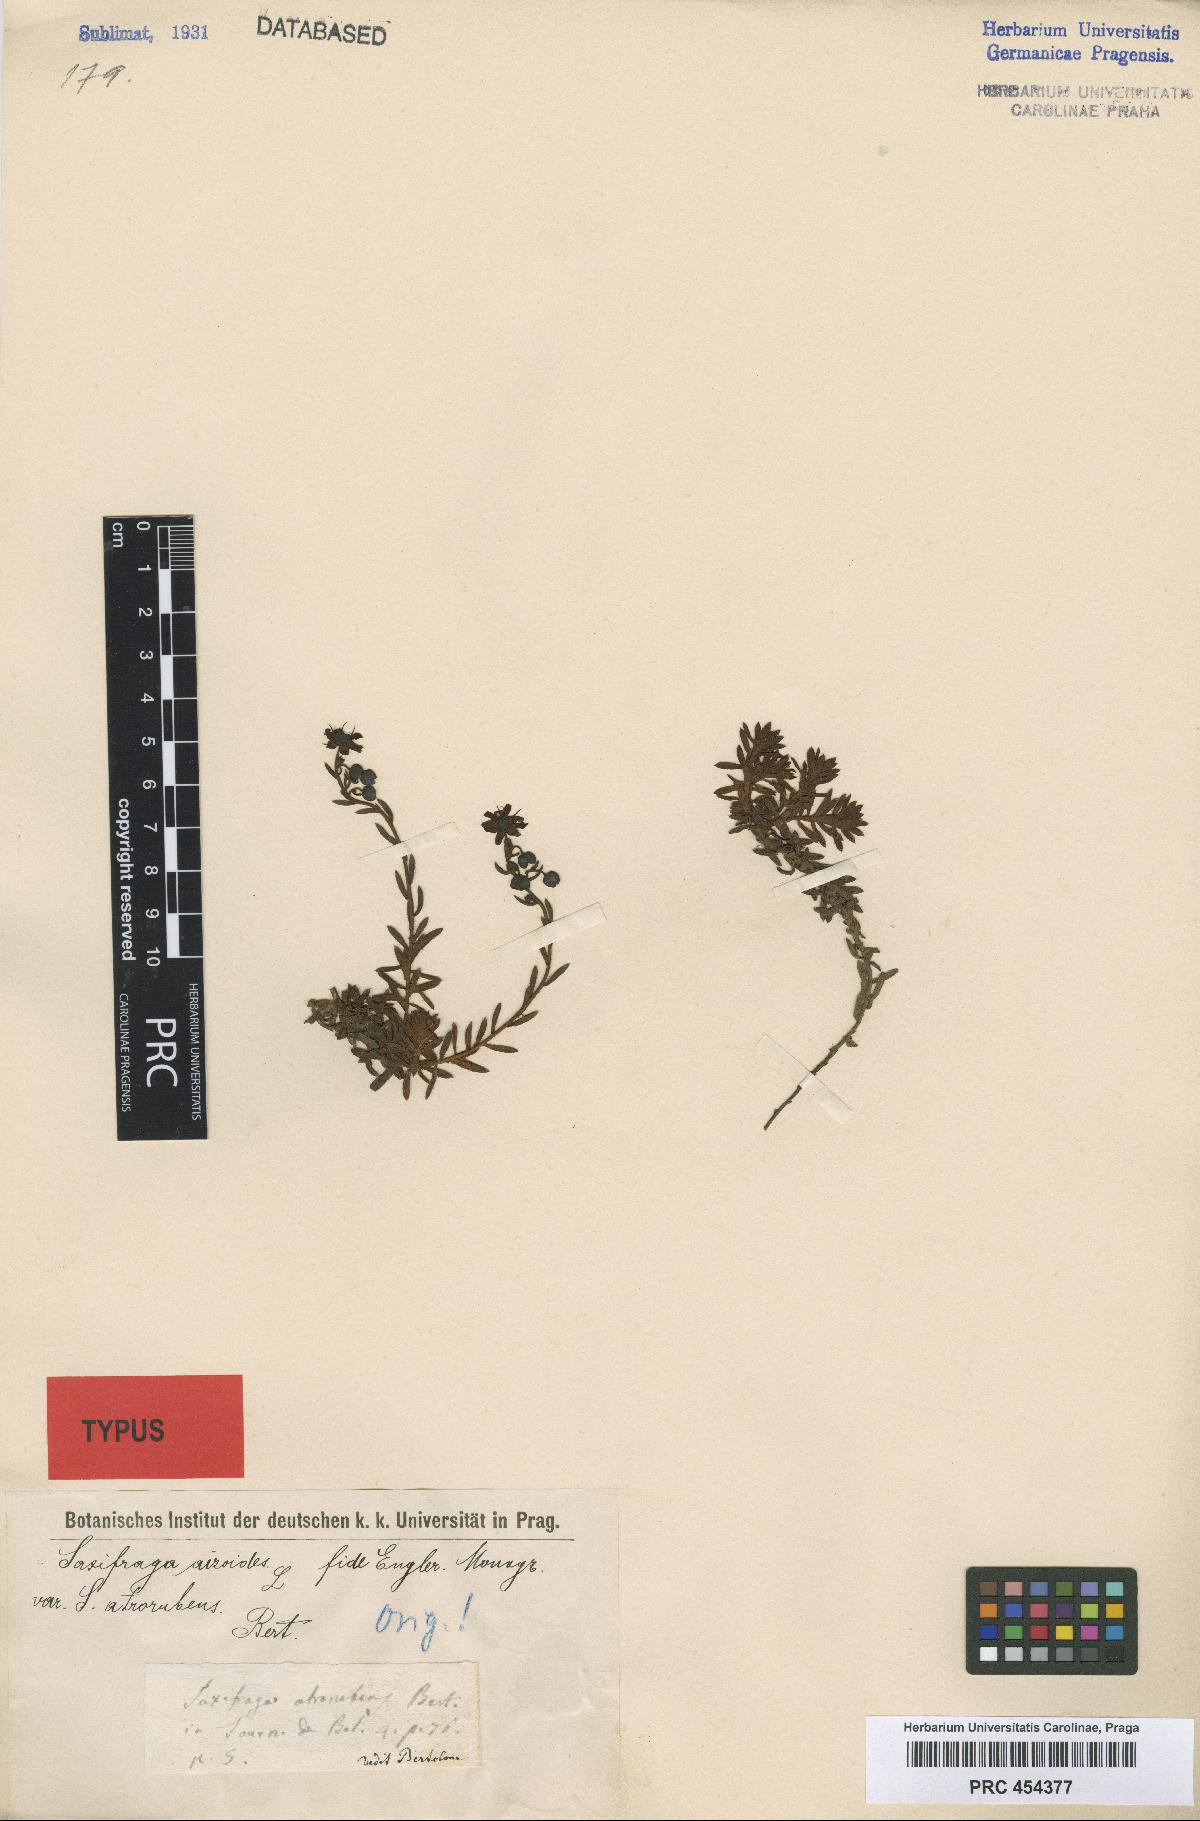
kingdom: Plantae
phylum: Tracheophyta
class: Magnoliopsida
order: Saxifragales
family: Saxifragaceae
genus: Saxifraga
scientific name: Saxifraga aizoides
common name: Yellow mountain saxifrage
